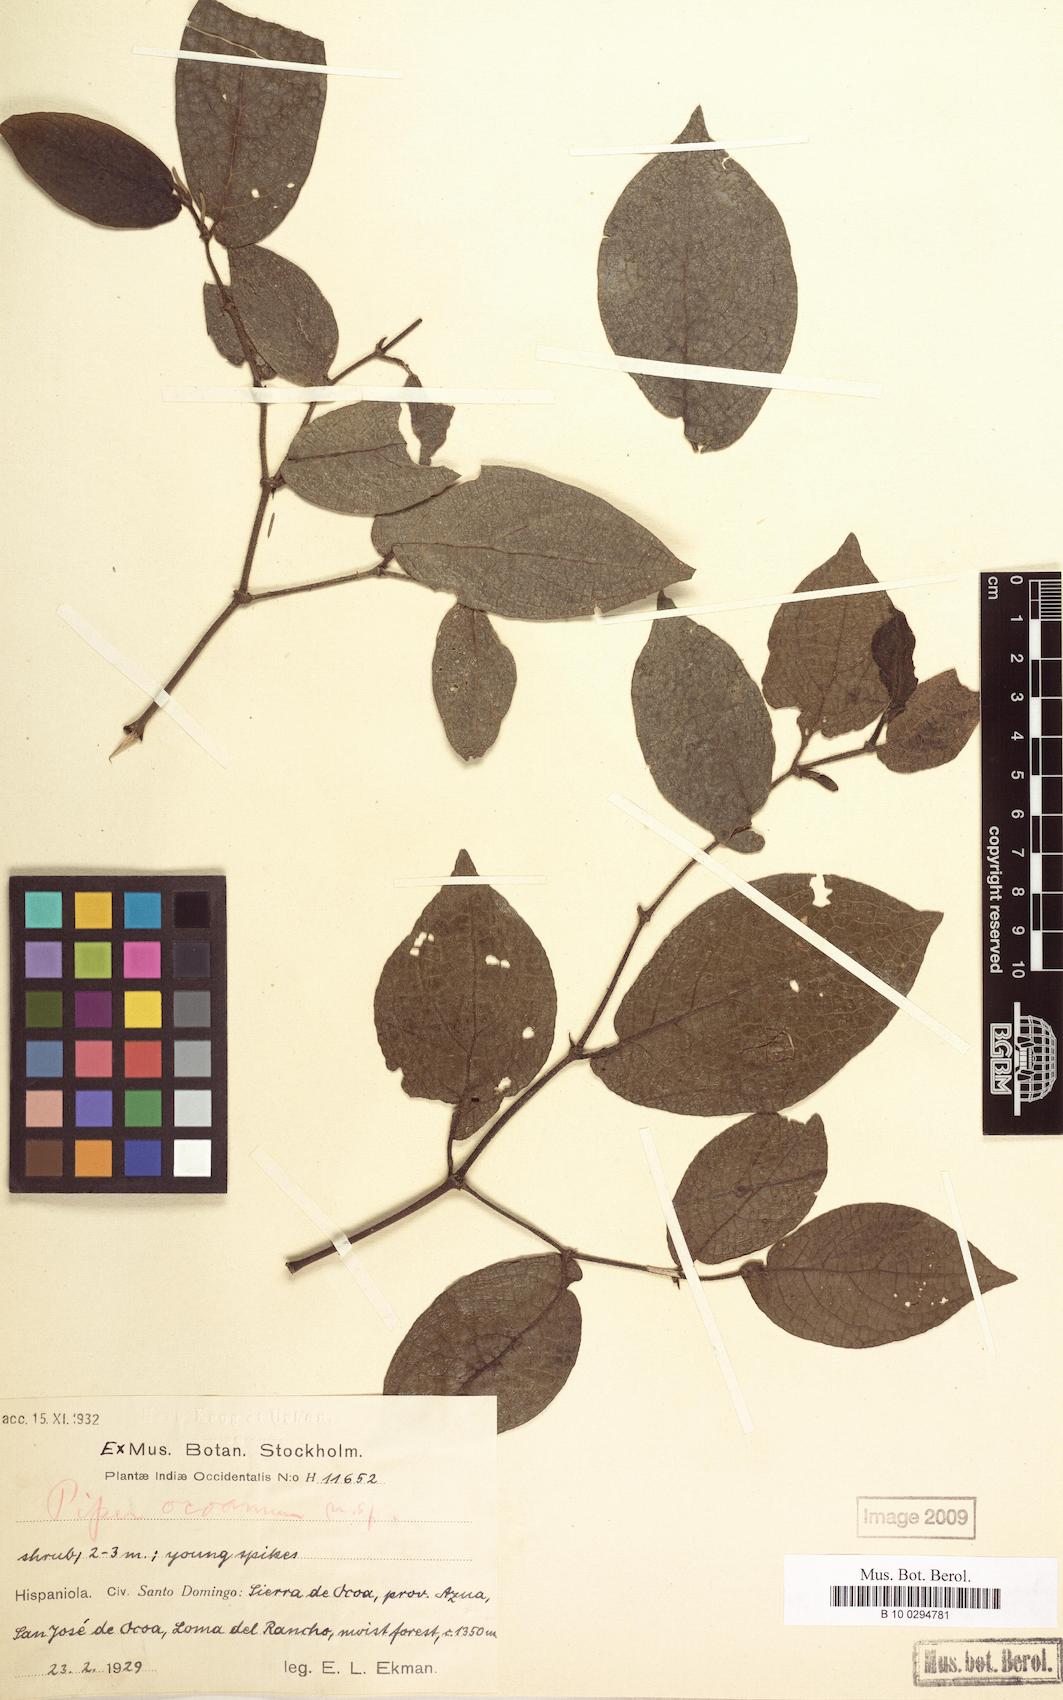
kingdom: Plantae
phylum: Tracheophyta
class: Magnoliopsida
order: Piperales
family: Piperaceae
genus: Piper
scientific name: Piper confusum
